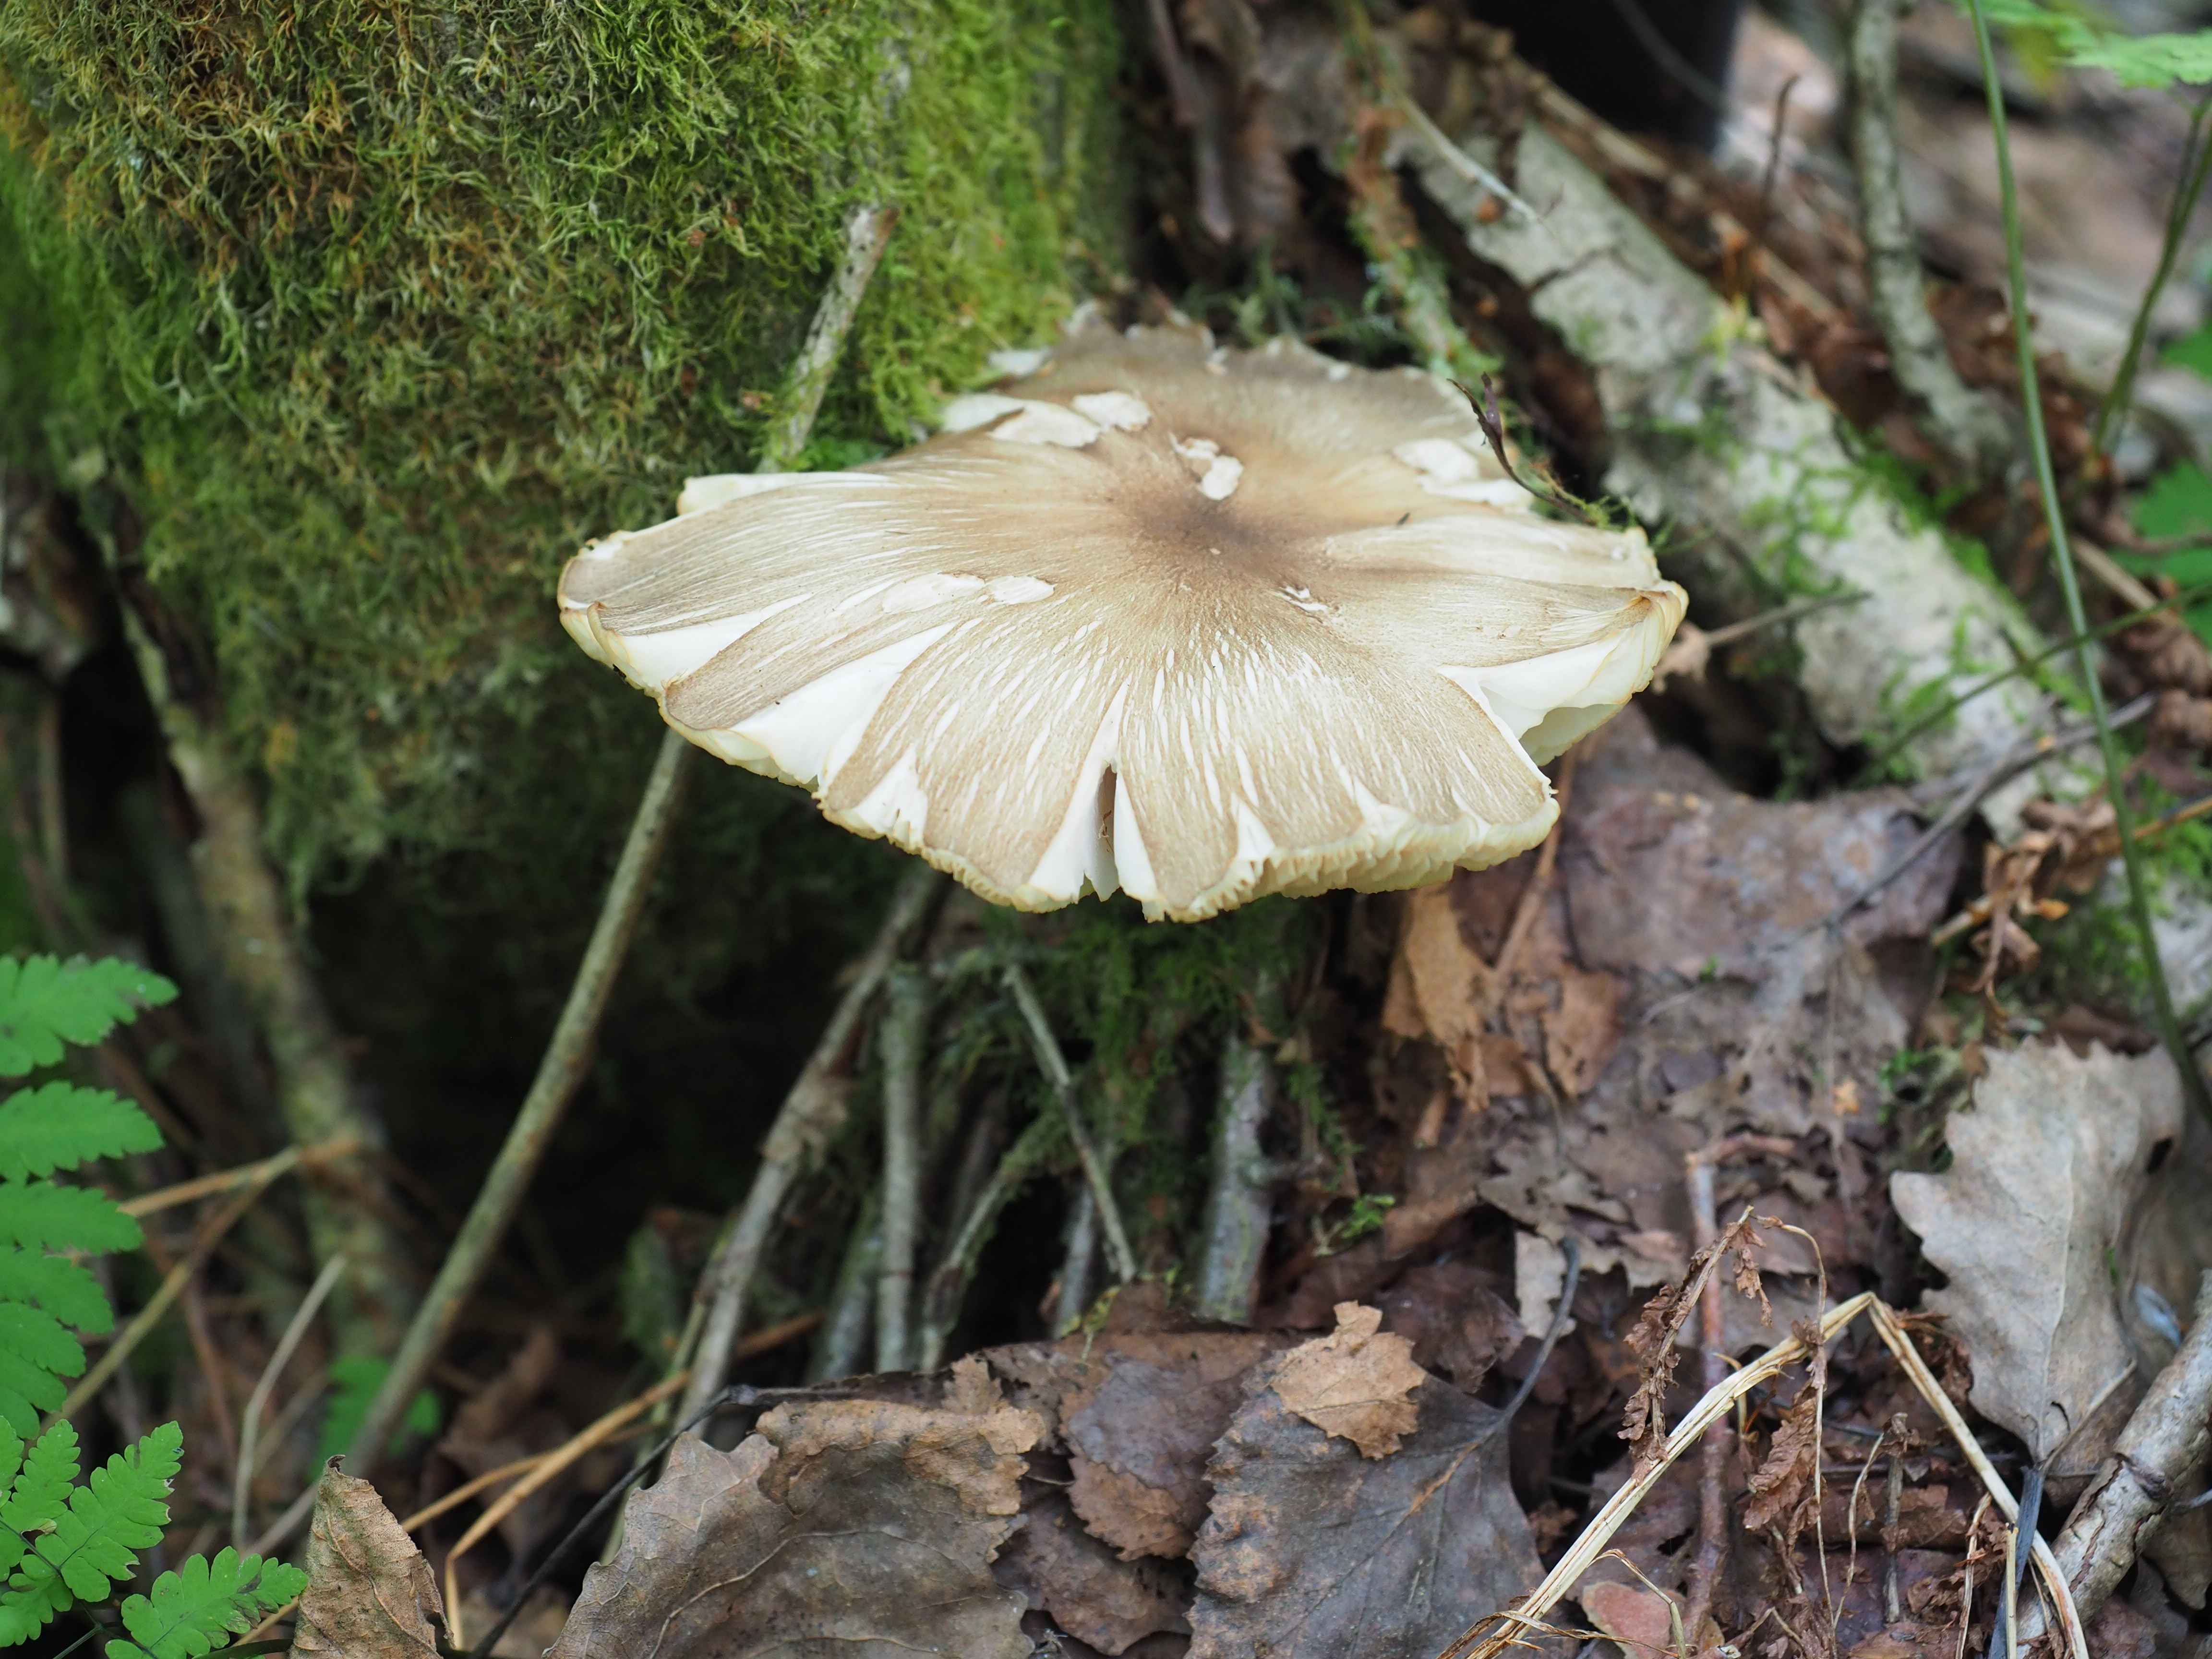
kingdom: Fungi
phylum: Basidiomycota
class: Agaricomycetes
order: Agaricales
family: Tricholomataceae
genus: Megacollybia
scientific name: Megacollybia platyphylla
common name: Whitelaced shank
